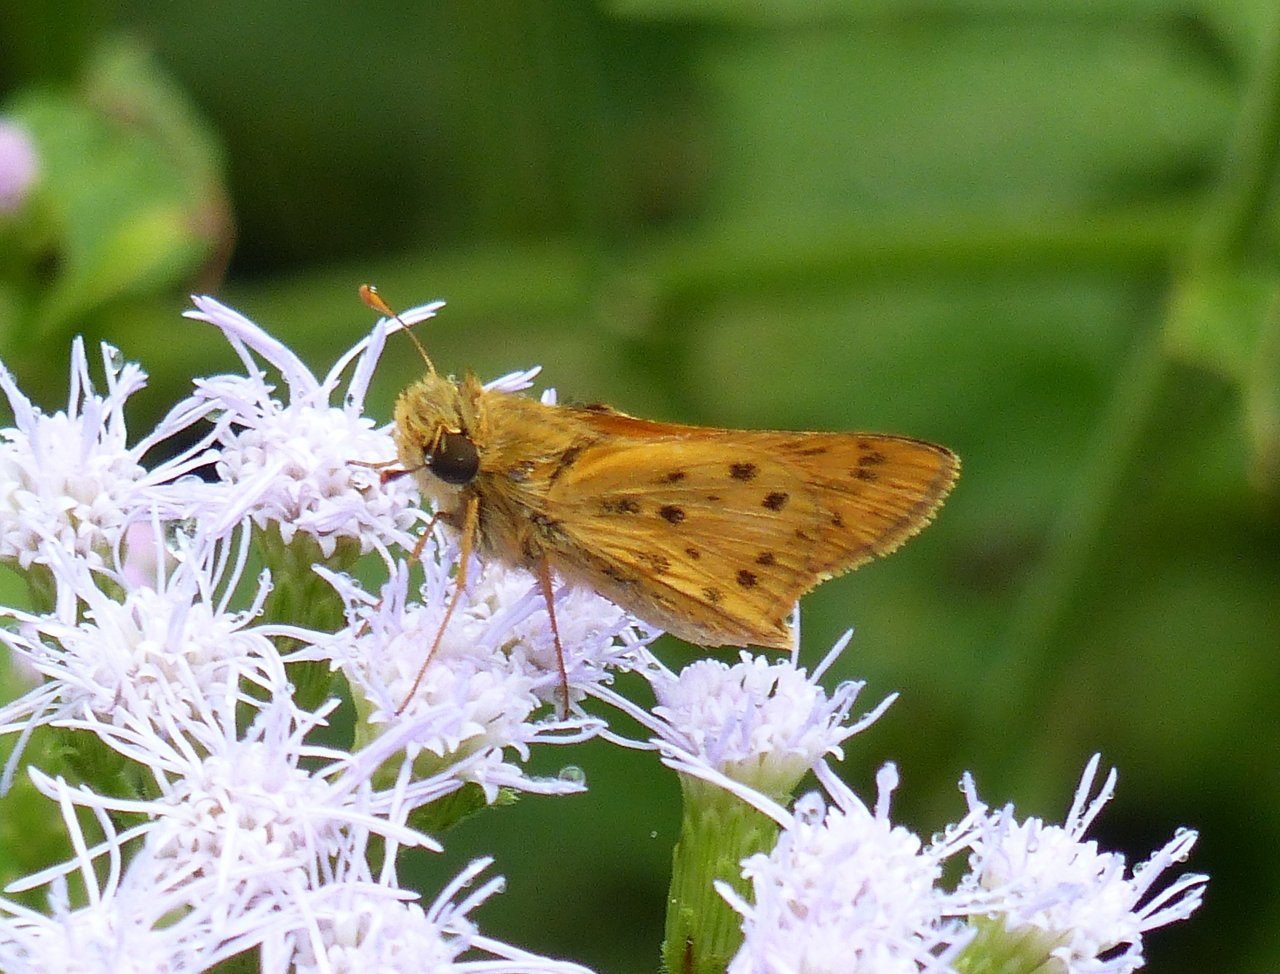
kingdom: Animalia
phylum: Arthropoda
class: Insecta
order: Lepidoptera
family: Hesperiidae
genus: Hylephila
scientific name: Hylephila phyleus
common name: Fiery Skipper
